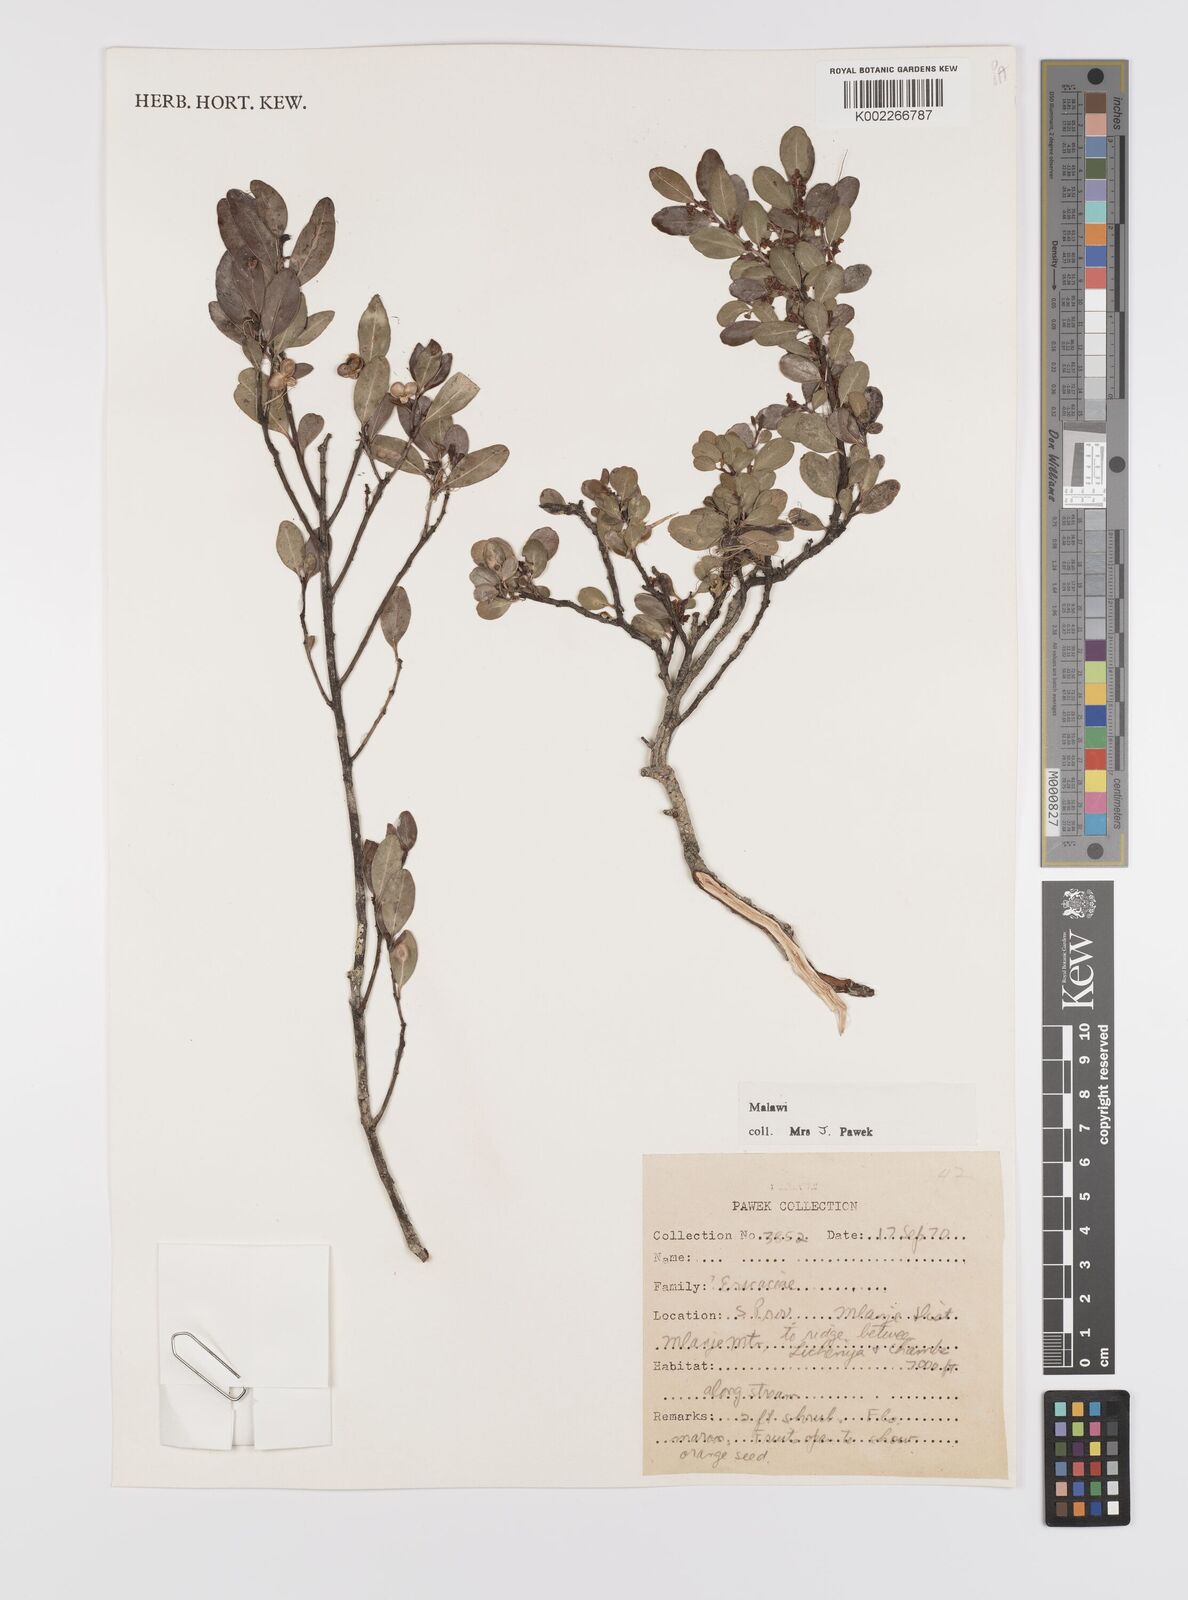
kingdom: Plantae
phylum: Tracheophyta
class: Magnoliopsida
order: Celastrales
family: Celastraceae
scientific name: Celastraceae
